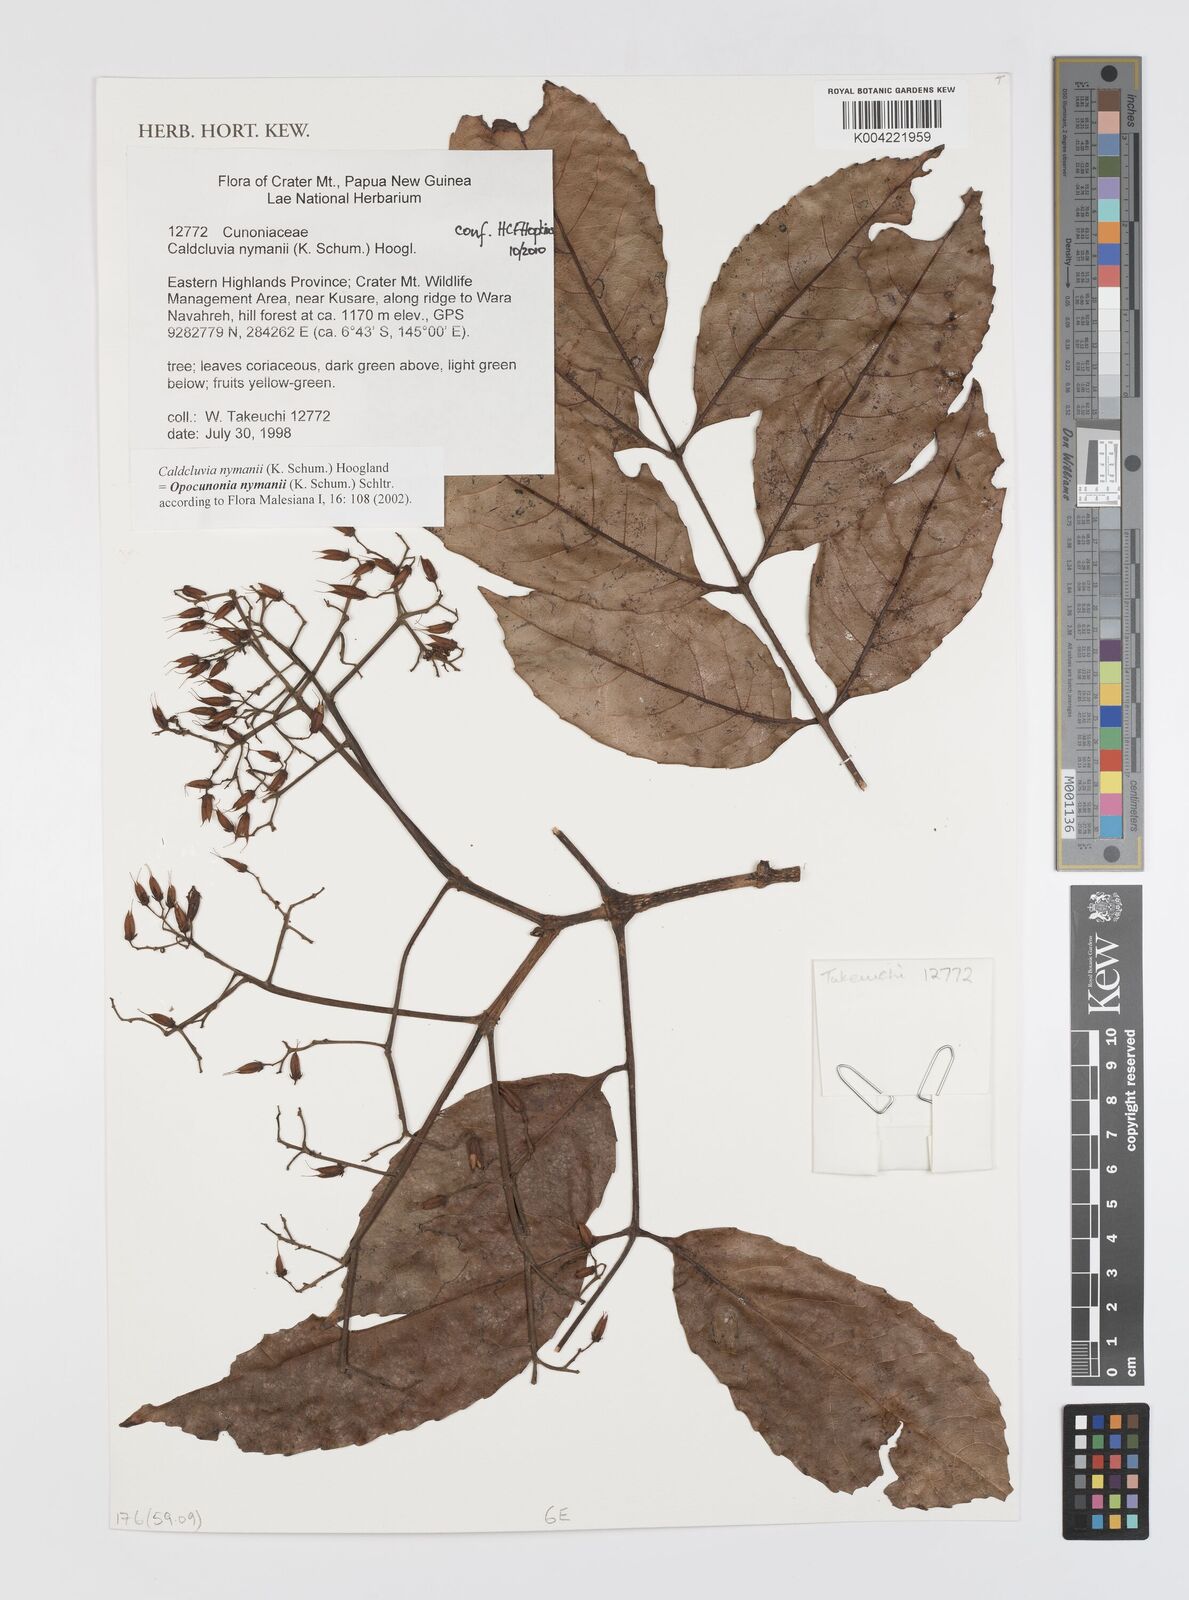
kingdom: Plantae
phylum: Tracheophyta
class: Magnoliopsida
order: Oxalidales
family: Cunoniaceae
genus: Opocunonia
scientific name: Opocunonia nymanii
